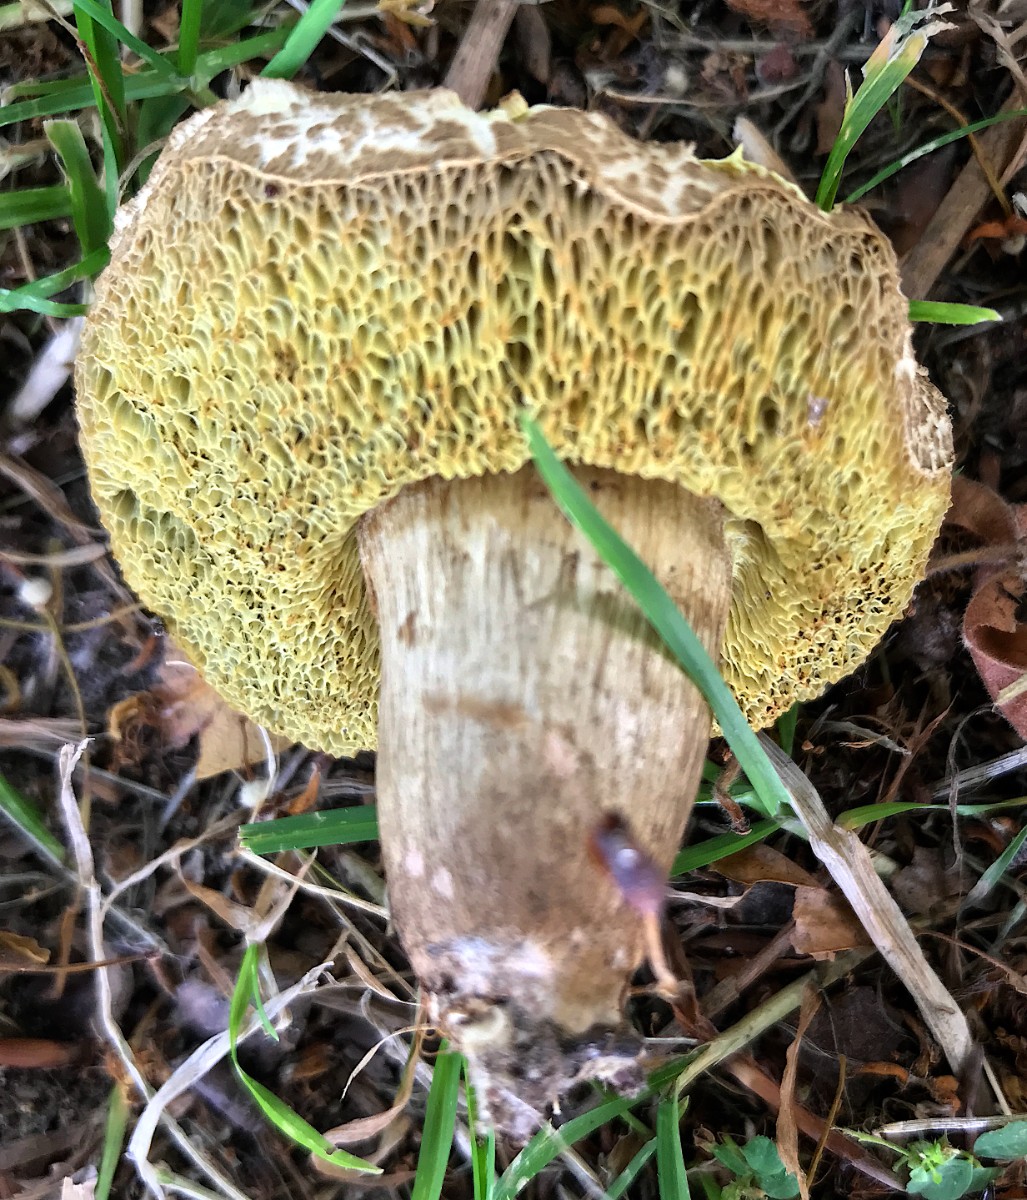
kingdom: Fungi
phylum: Basidiomycota
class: Agaricomycetes
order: Boletales
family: Boletaceae
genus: Xerocomellus
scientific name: Xerocomellus porosporus
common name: hvidsprukken rørhat
